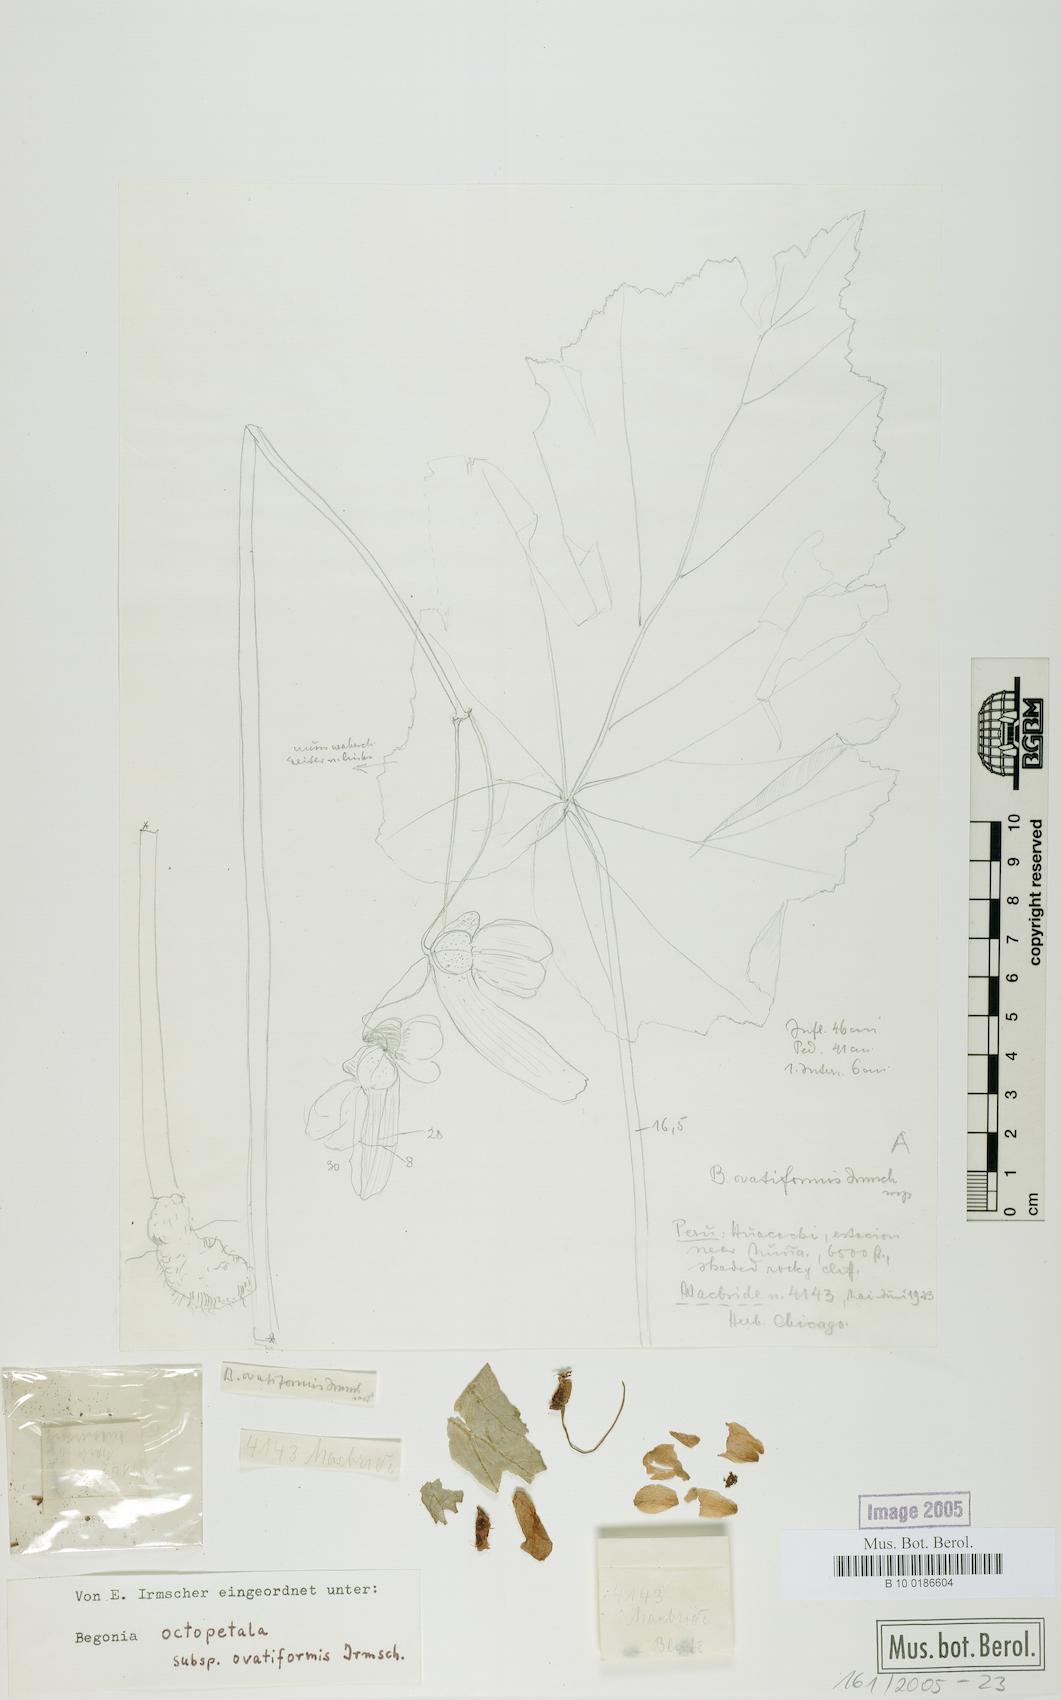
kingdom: Plantae
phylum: Tracheophyta
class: Magnoliopsida
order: Cucurbitales
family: Begoniaceae
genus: Begonia
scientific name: Begonia octopetala
